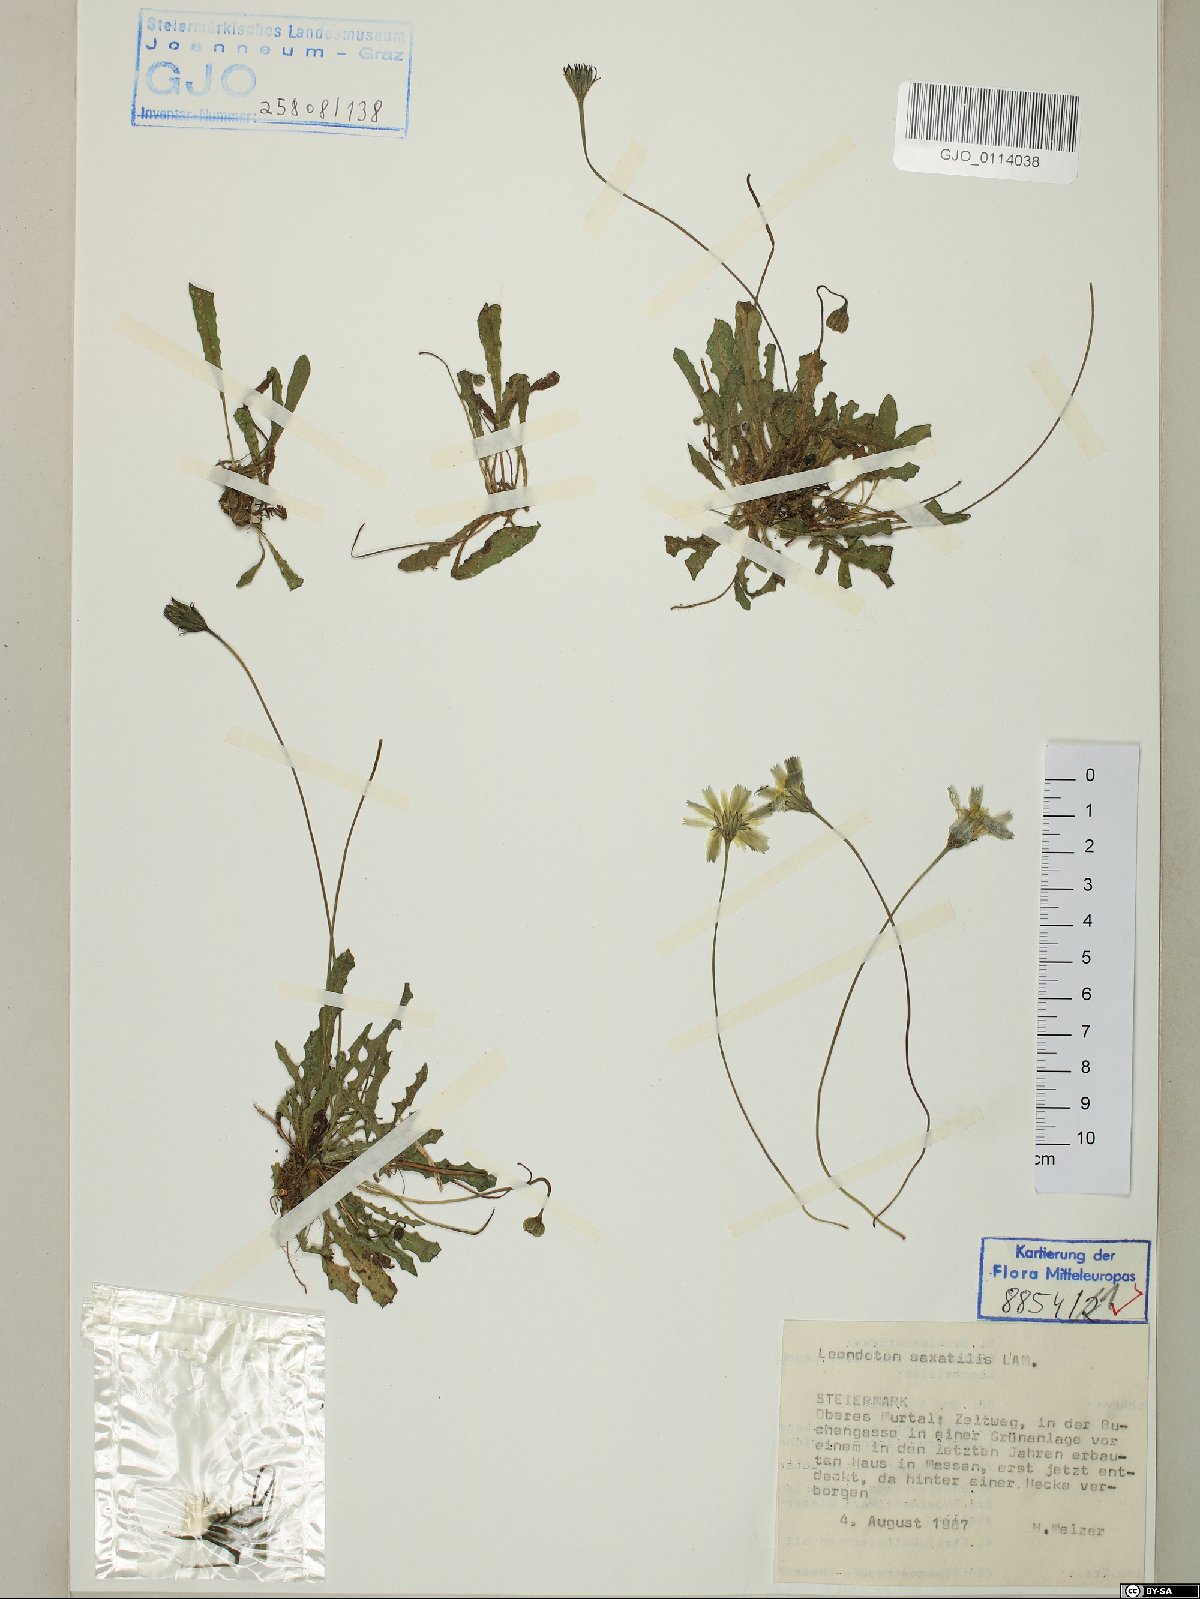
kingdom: Plantae
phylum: Tracheophyta
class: Magnoliopsida
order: Asterales
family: Asteraceae
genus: Thrincia
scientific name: Thrincia saxatilis
